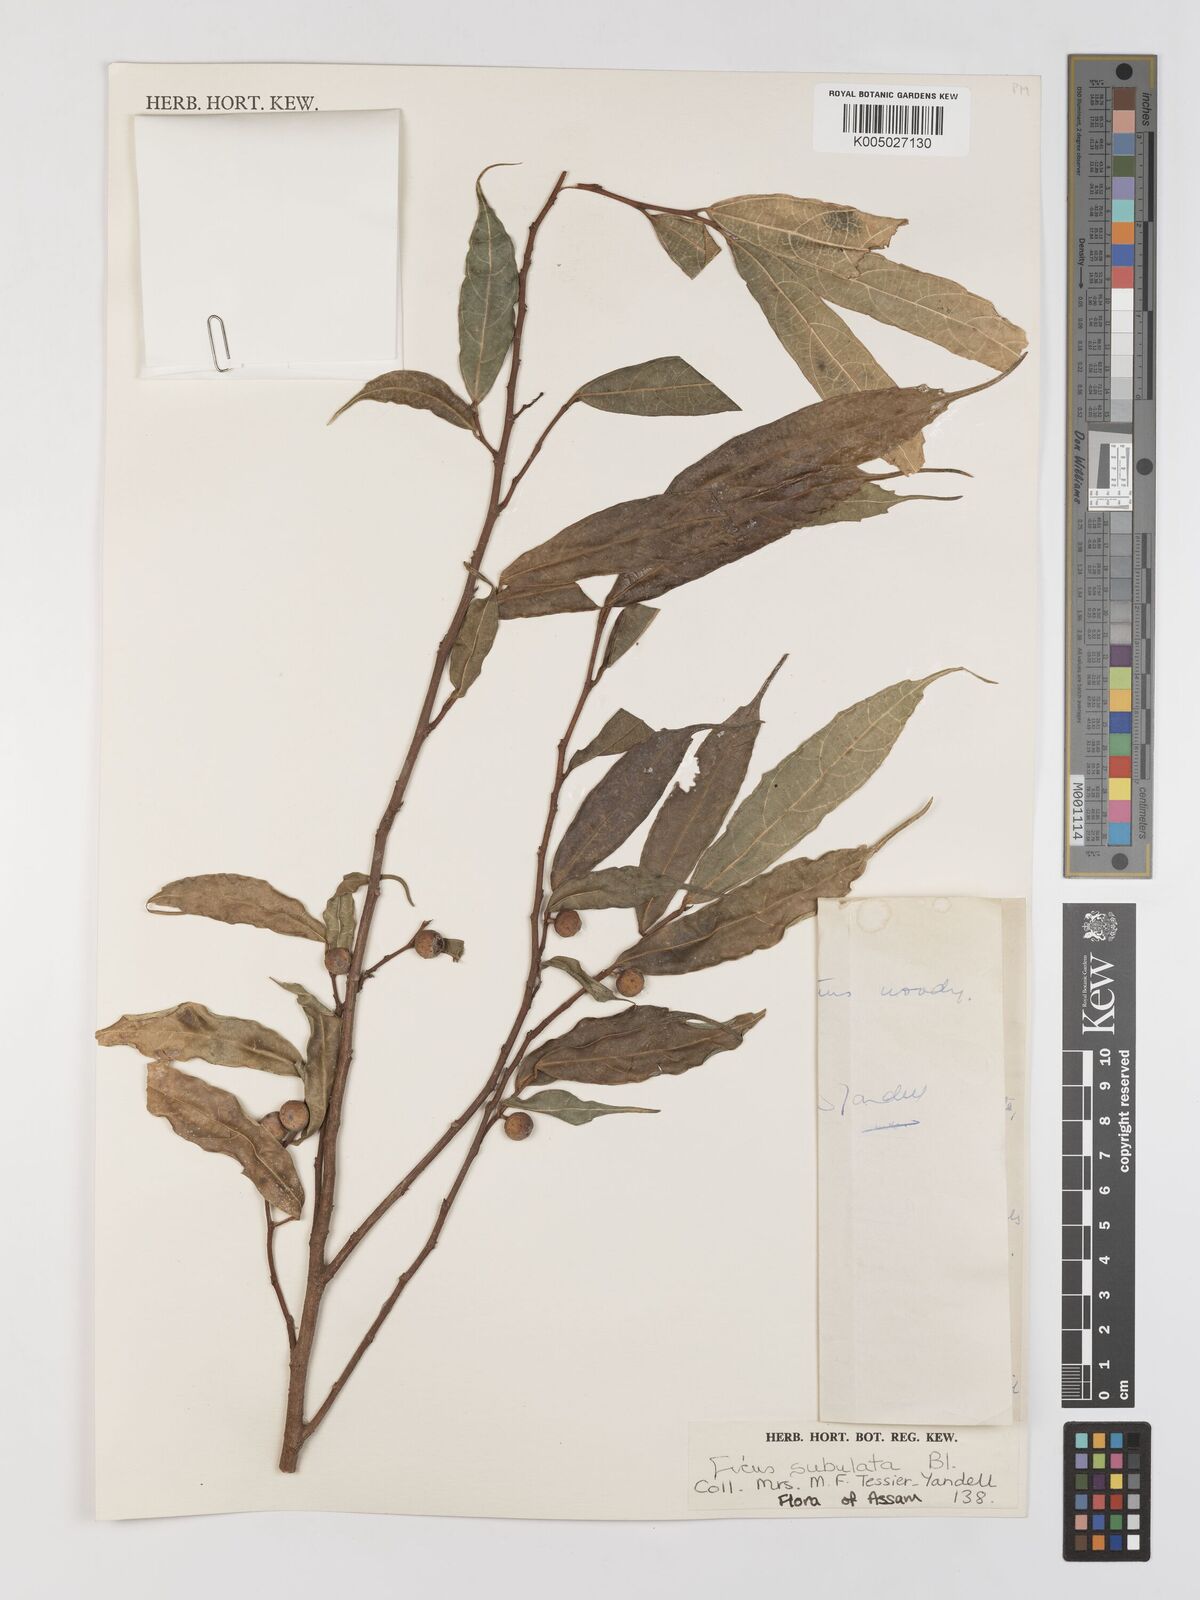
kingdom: Plantae
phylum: Tracheophyta
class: Magnoliopsida
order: Rosales
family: Moraceae
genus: Ficus
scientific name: Ficus subulata
